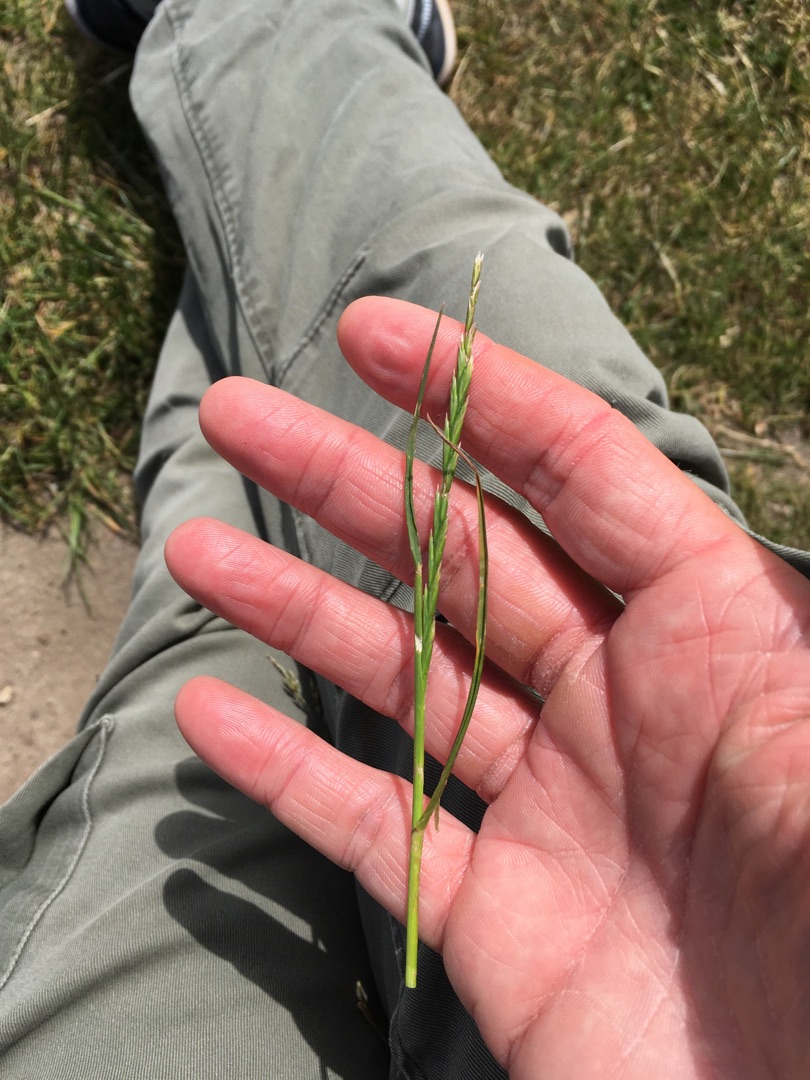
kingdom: Plantae
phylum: Tracheophyta
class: Liliopsida
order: Poales
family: Poaceae
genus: Lolium
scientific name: Lolium perenne
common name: Almindelig rajgræs
